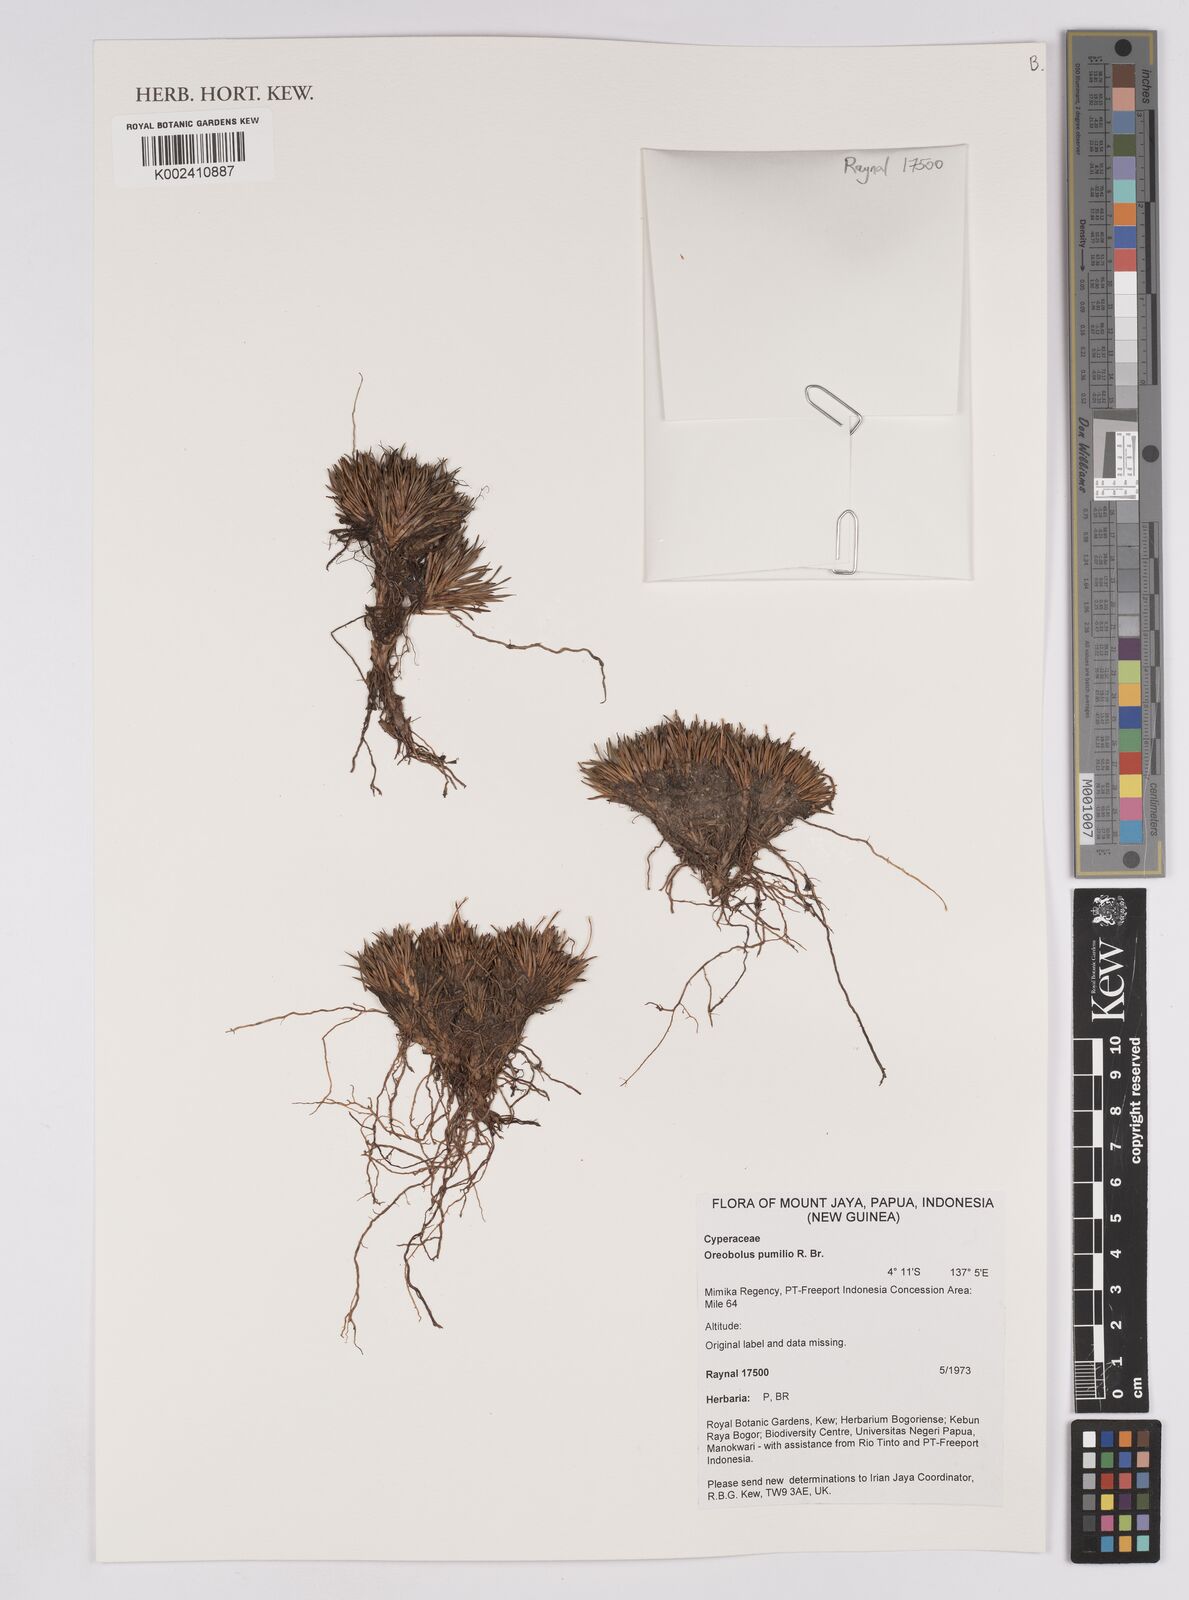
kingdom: Plantae
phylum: Tracheophyta
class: Liliopsida
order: Poales
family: Cyperaceae
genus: Oreobolus
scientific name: Oreobolus pumilio
